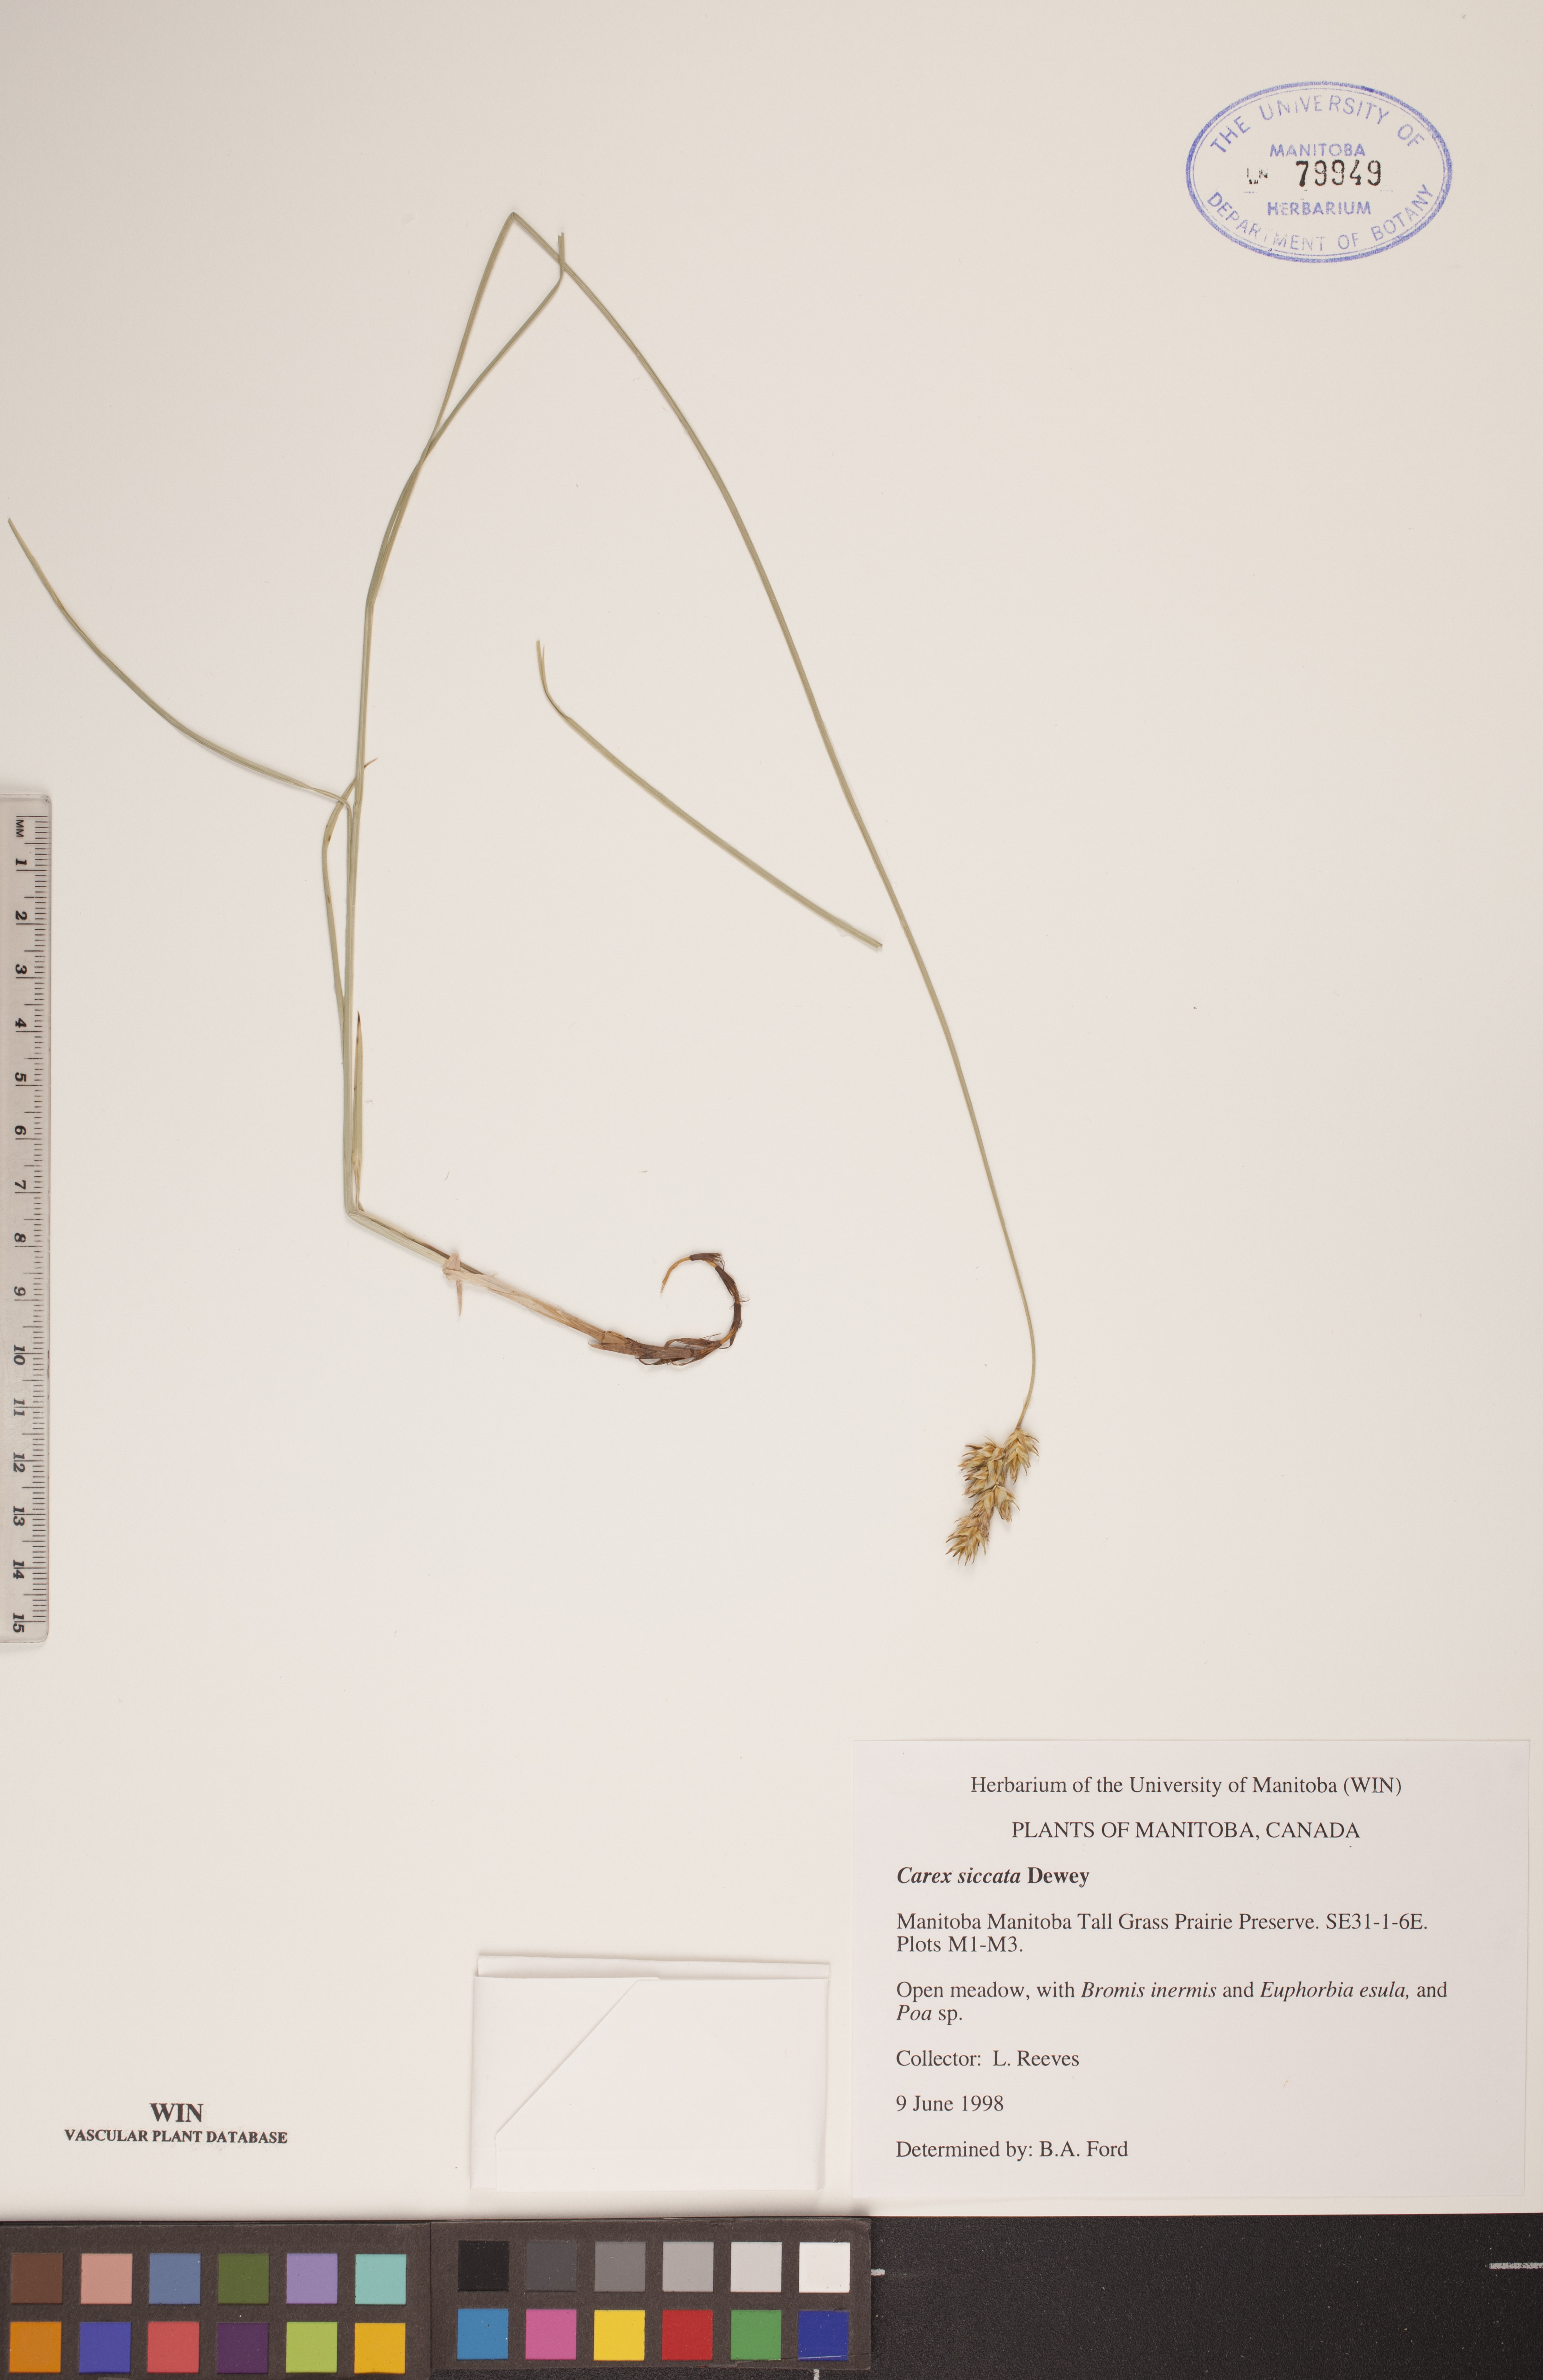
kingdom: Plantae
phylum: Tracheophyta
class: Liliopsida
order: Poales
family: Cyperaceae
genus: Carex
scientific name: Carex siccata
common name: Dry sedge
